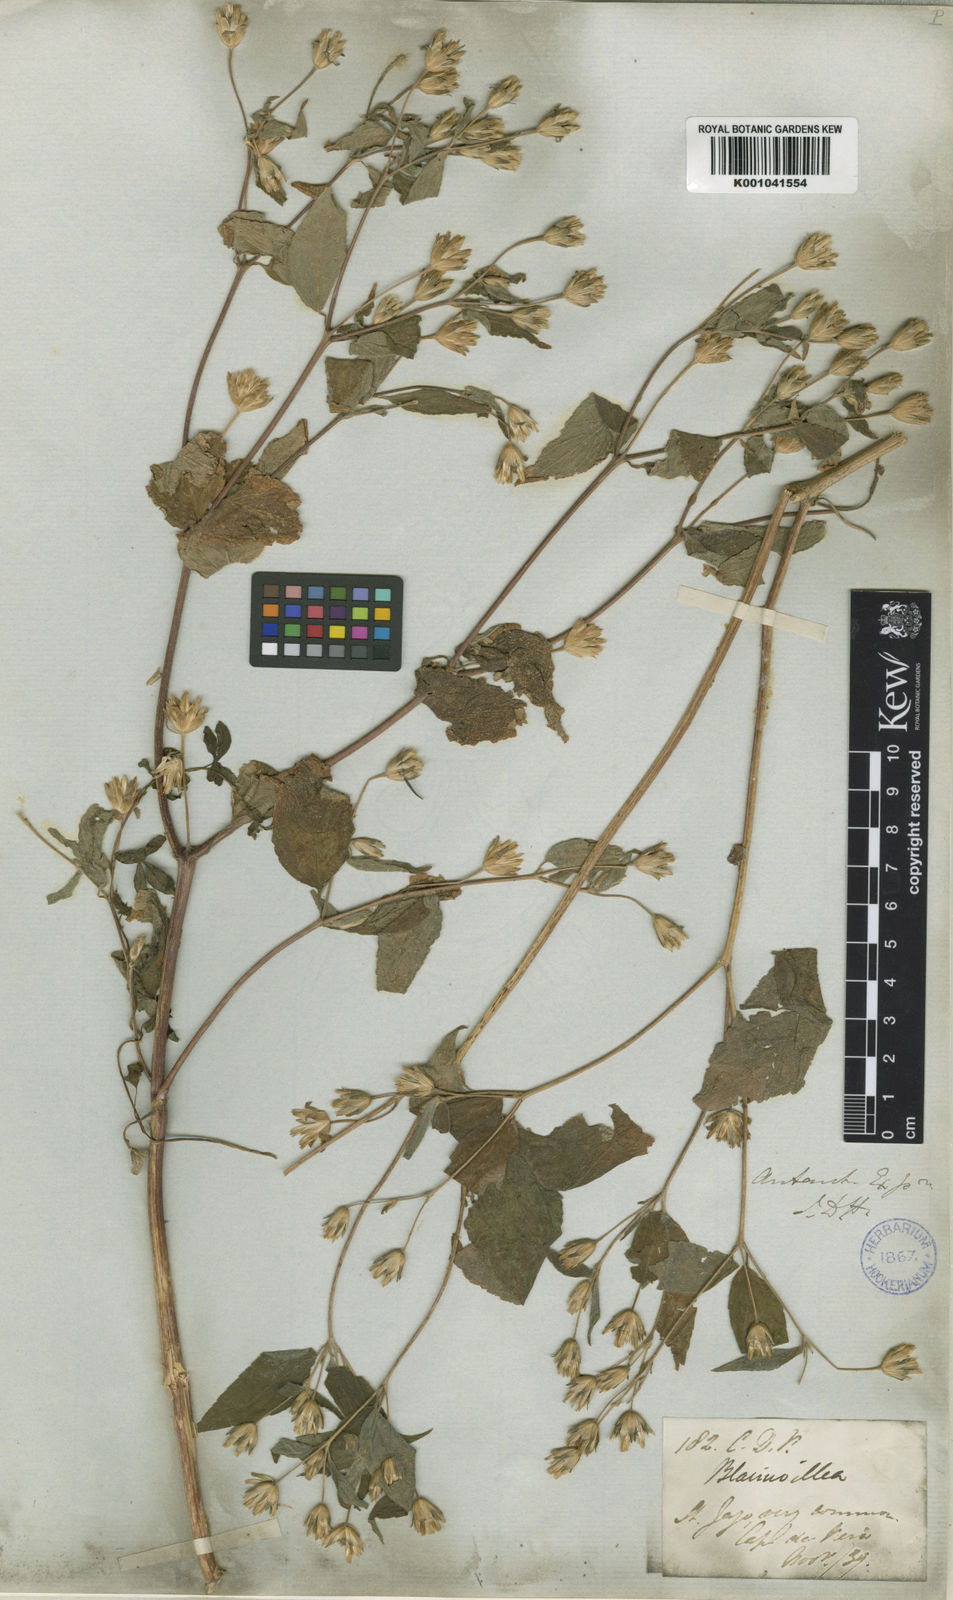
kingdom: Plantae
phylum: Tracheophyta
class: Magnoliopsida
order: Asterales
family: Asteraceae
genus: Blainvillea
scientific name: Blainvillea
